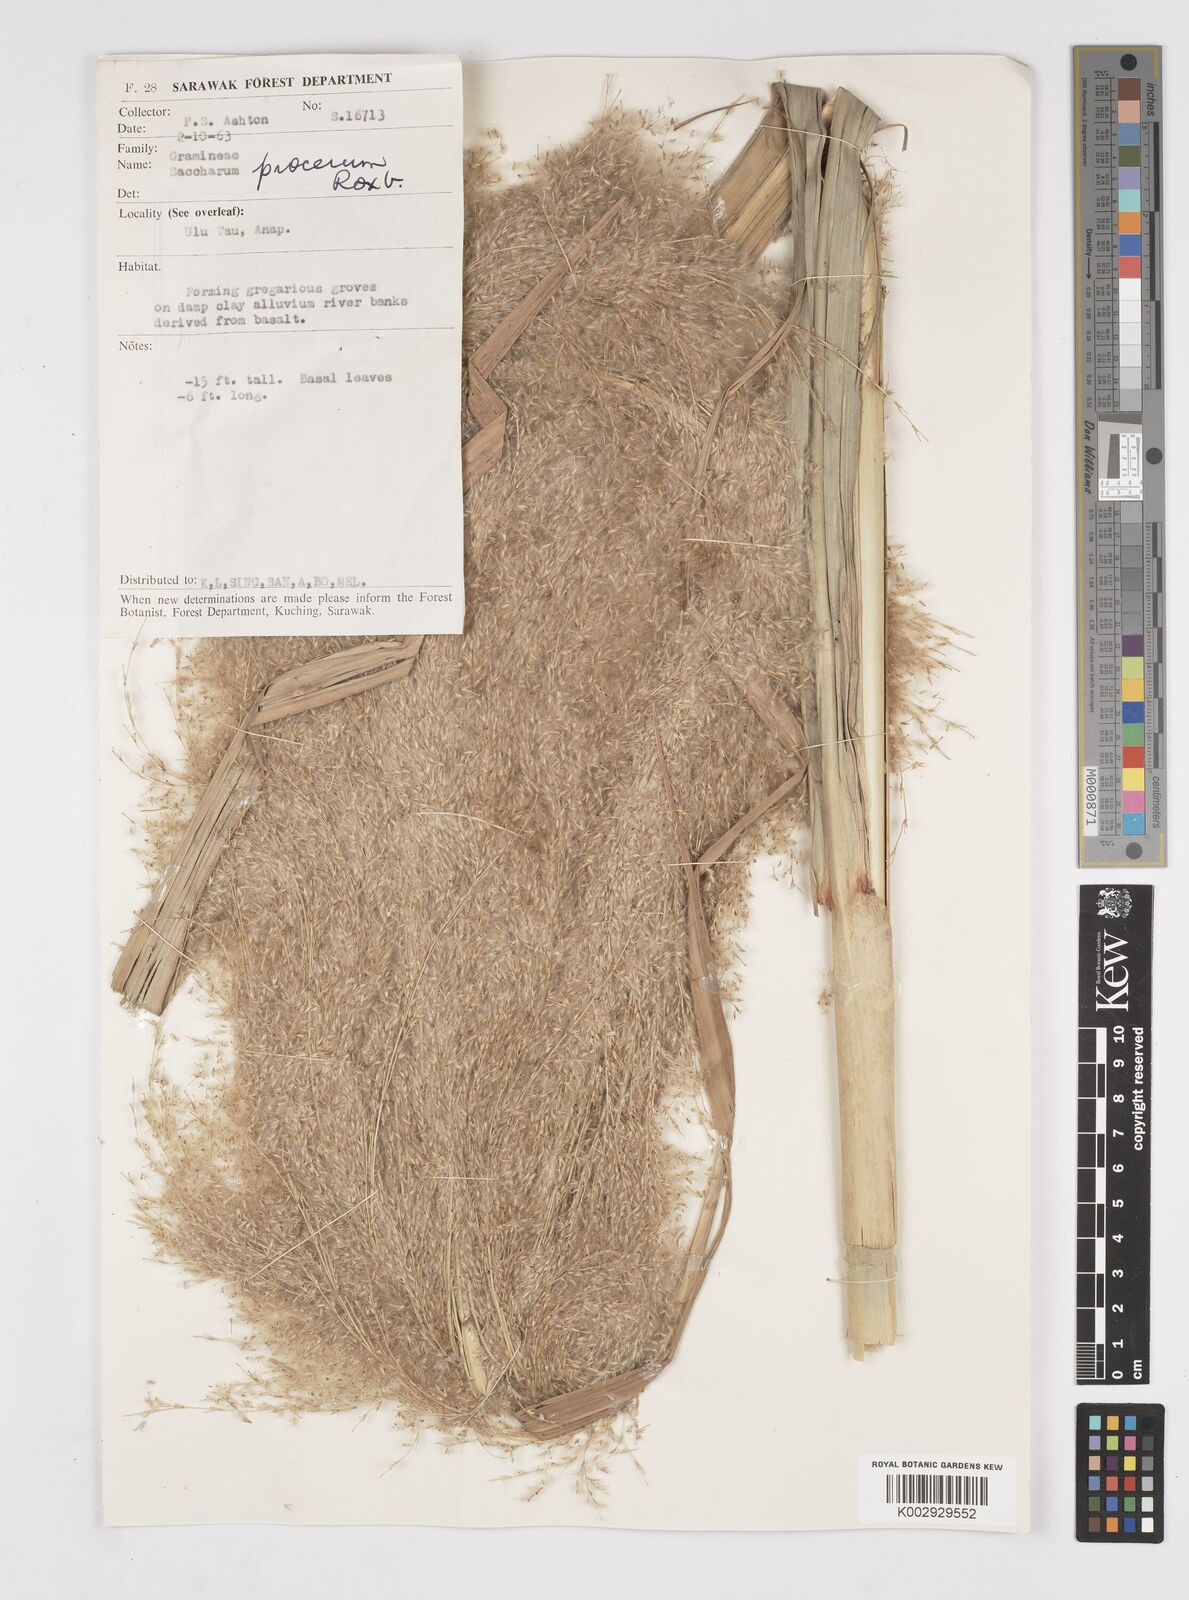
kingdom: Plantae
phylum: Tracheophyta
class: Liliopsida
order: Poales
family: Poaceae
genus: Tripidium
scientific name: Tripidium procerum
